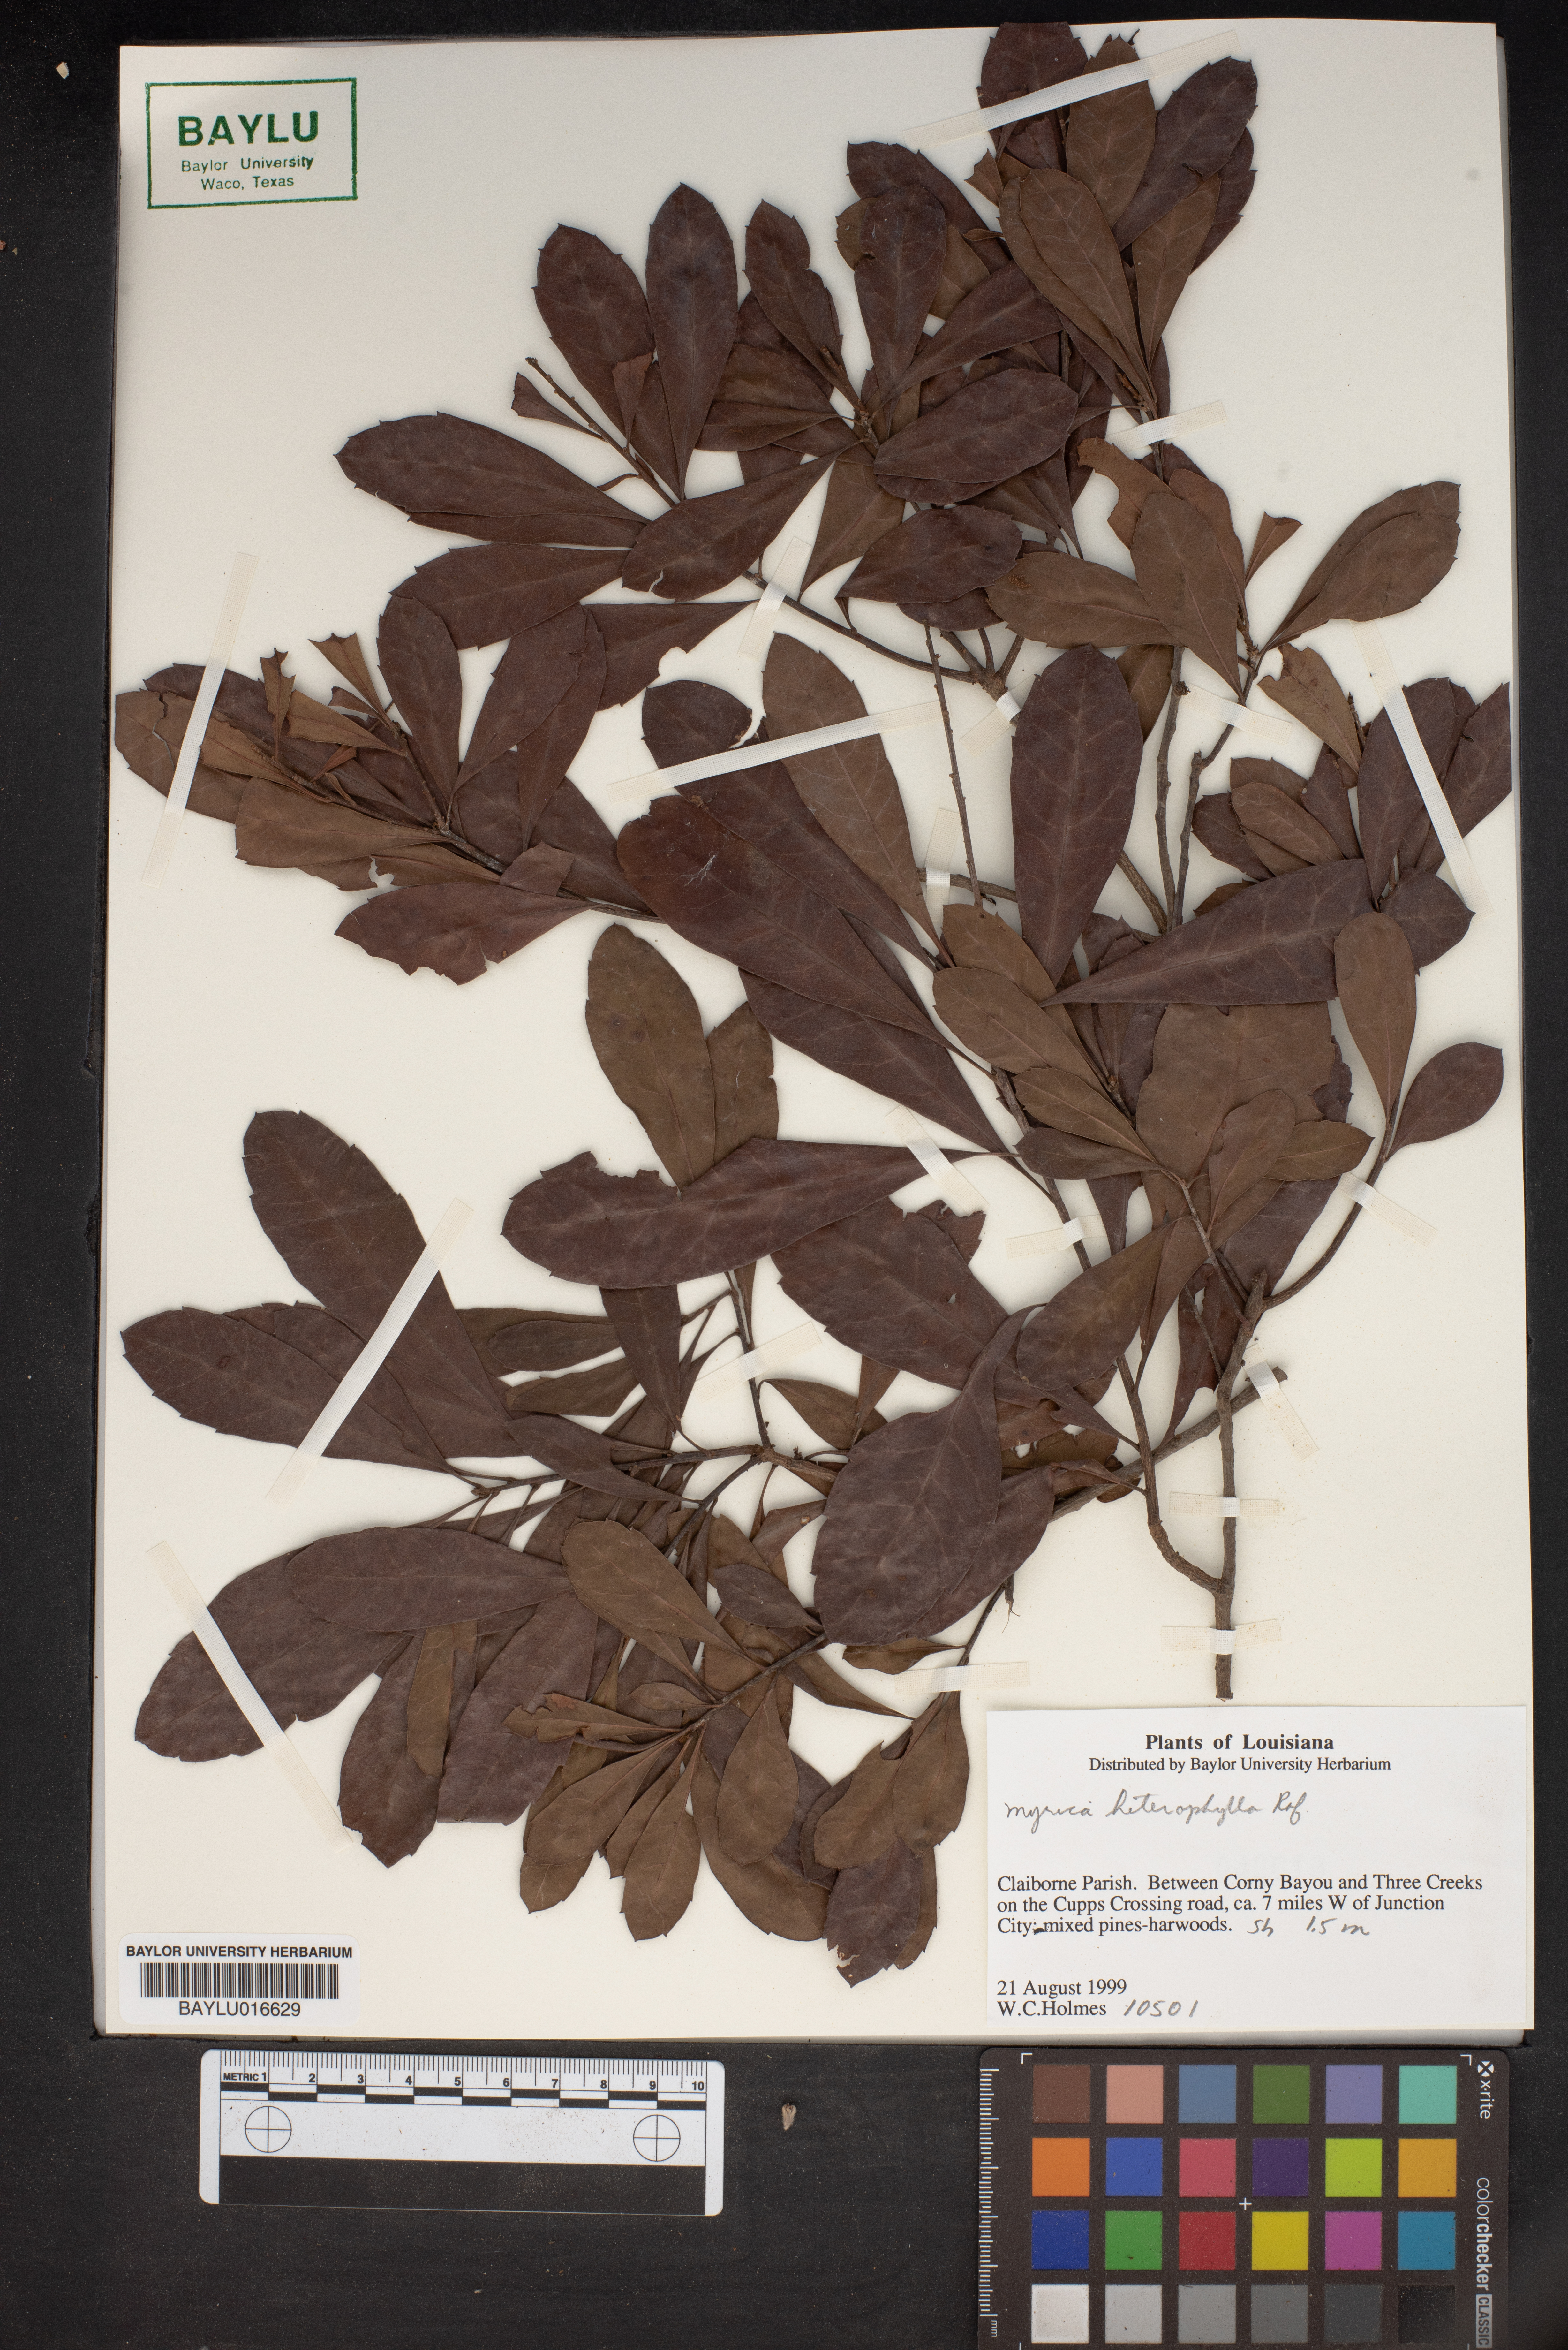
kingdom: Plantae
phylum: Tracheophyta
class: Magnoliopsida
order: Fagales
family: Myricaceae
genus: Morella
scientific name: Morella caroliniensis
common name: Evergreen bayberry
